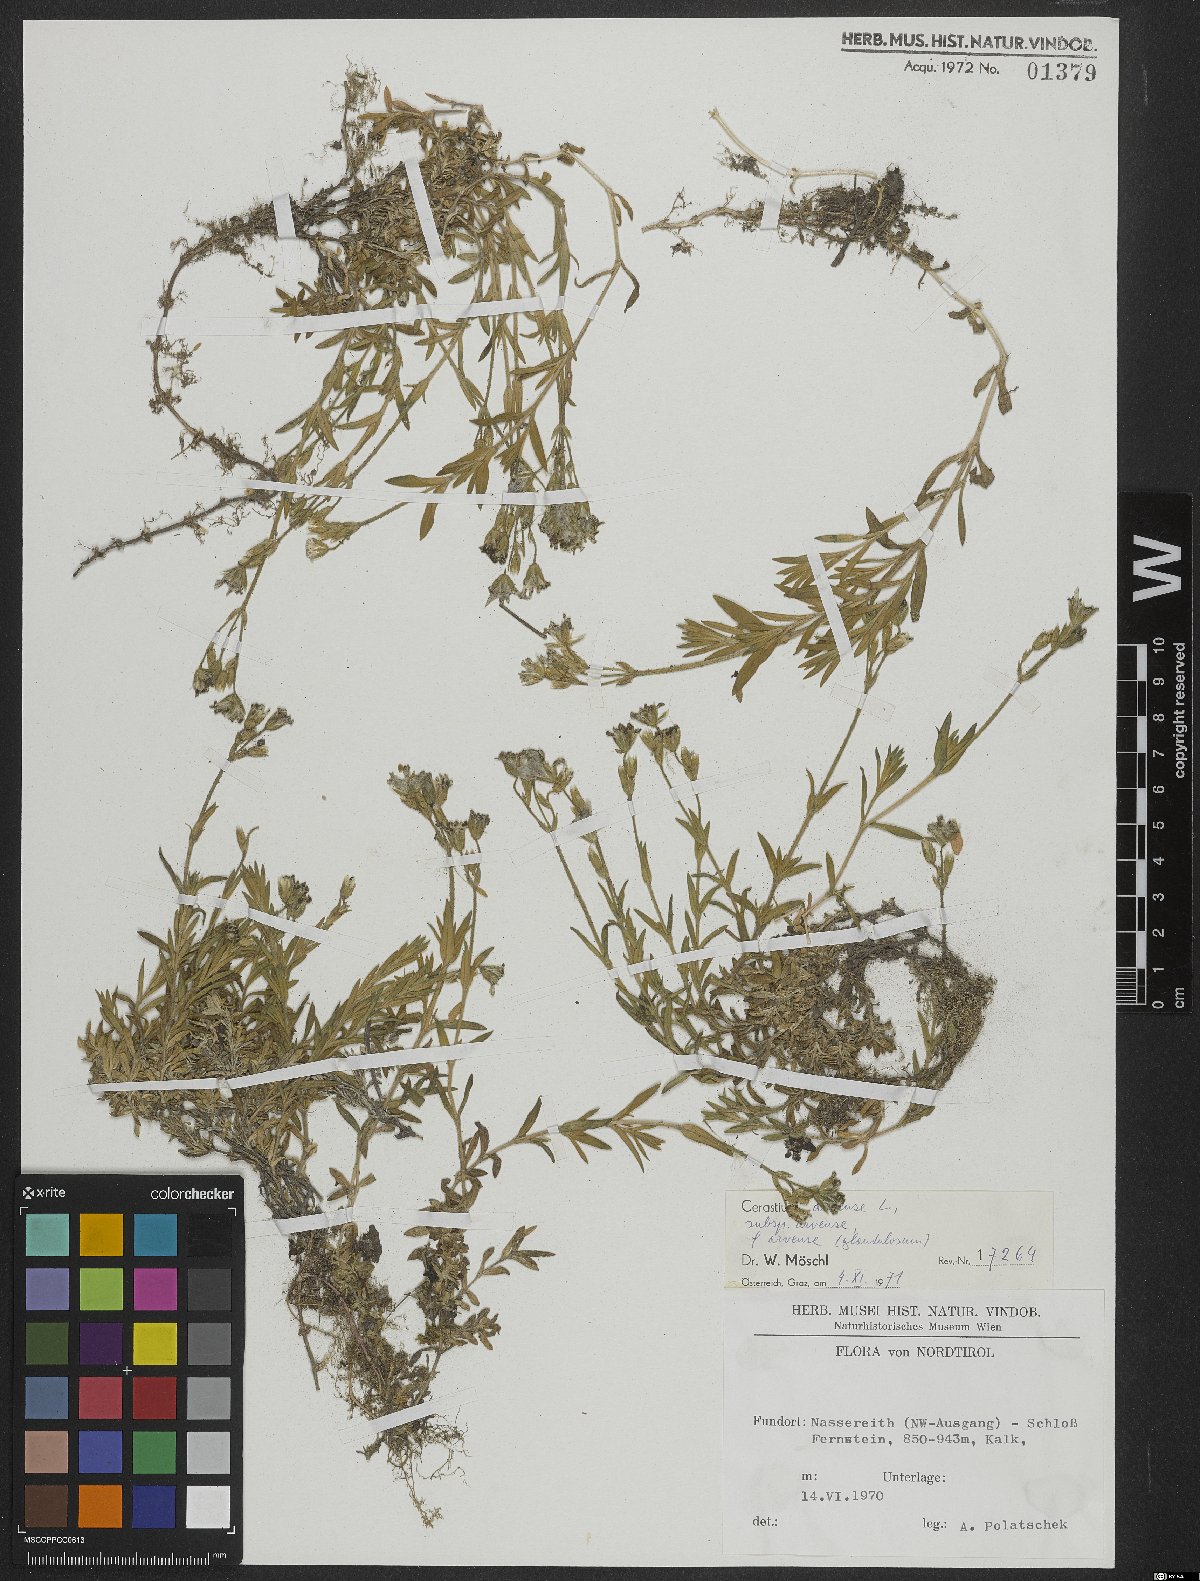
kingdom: Plantae
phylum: Tracheophyta
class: Magnoliopsida
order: Caryophyllales
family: Caryophyllaceae
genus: Cerastium
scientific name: Cerastium arvense
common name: Field mouse-ear
